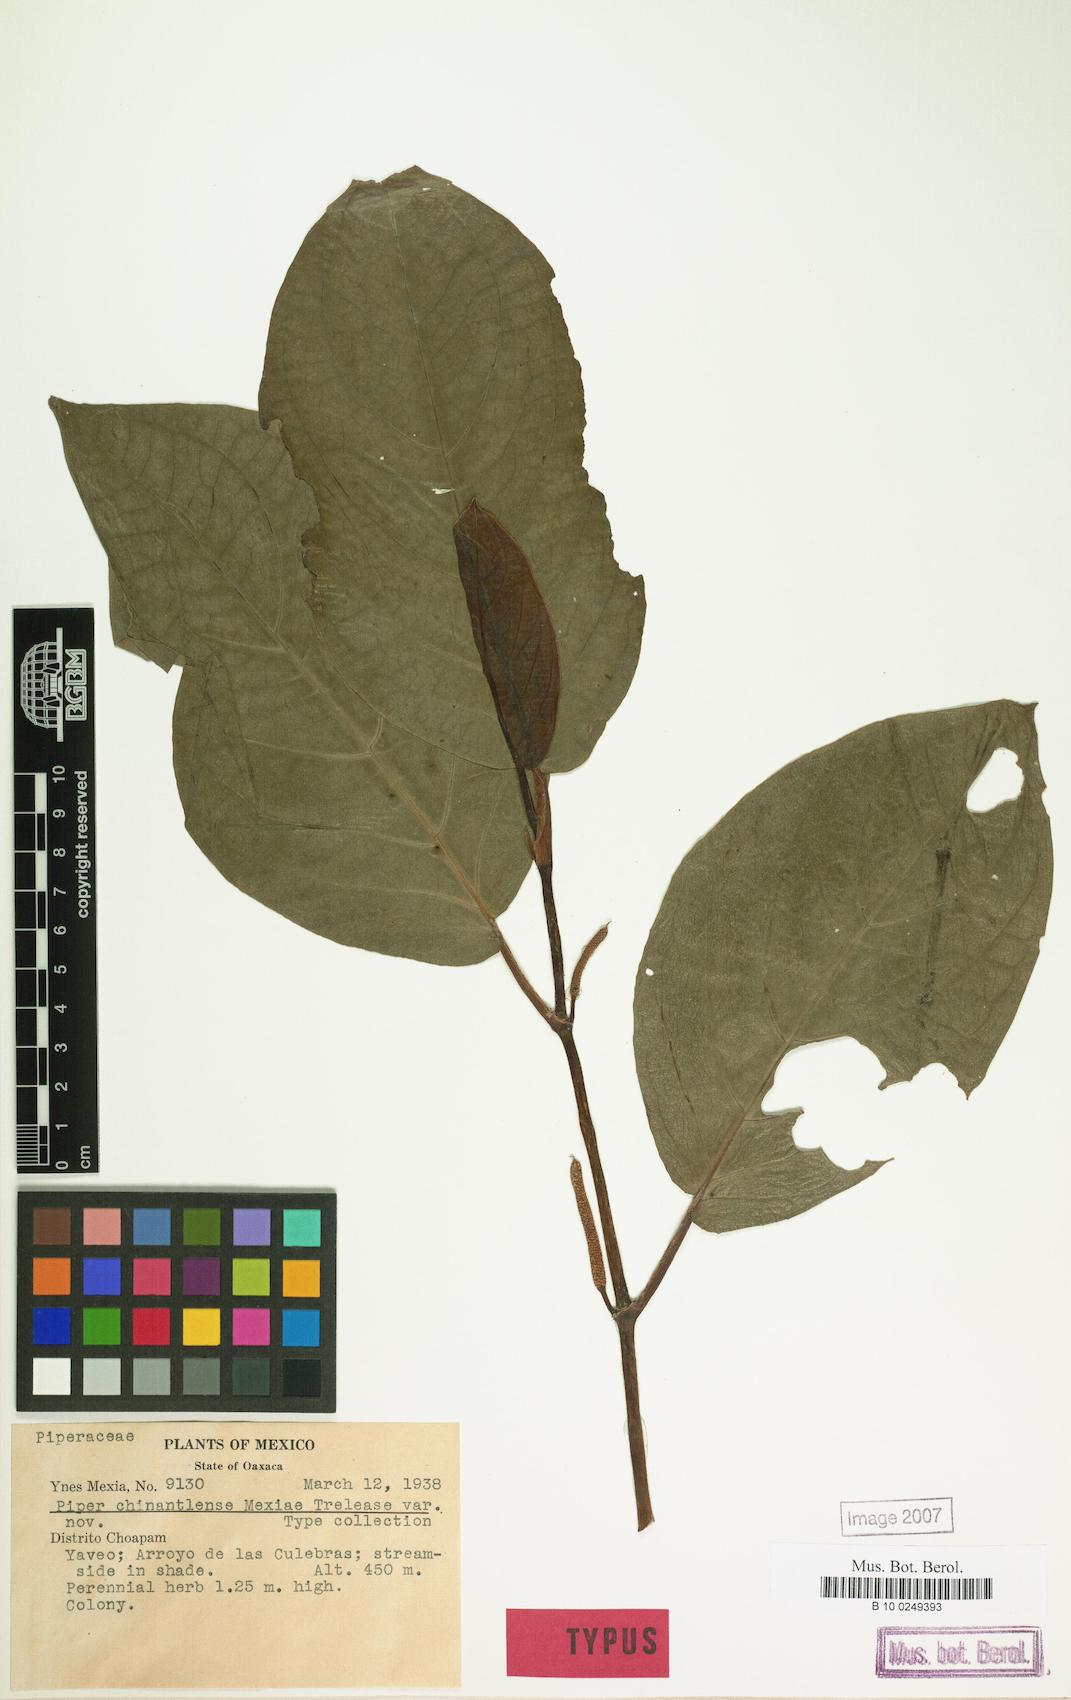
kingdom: Plantae
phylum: Tracheophyta
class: Magnoliopsida
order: Piperales
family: Piperaceae
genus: Piper
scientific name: Piper chinantlense
